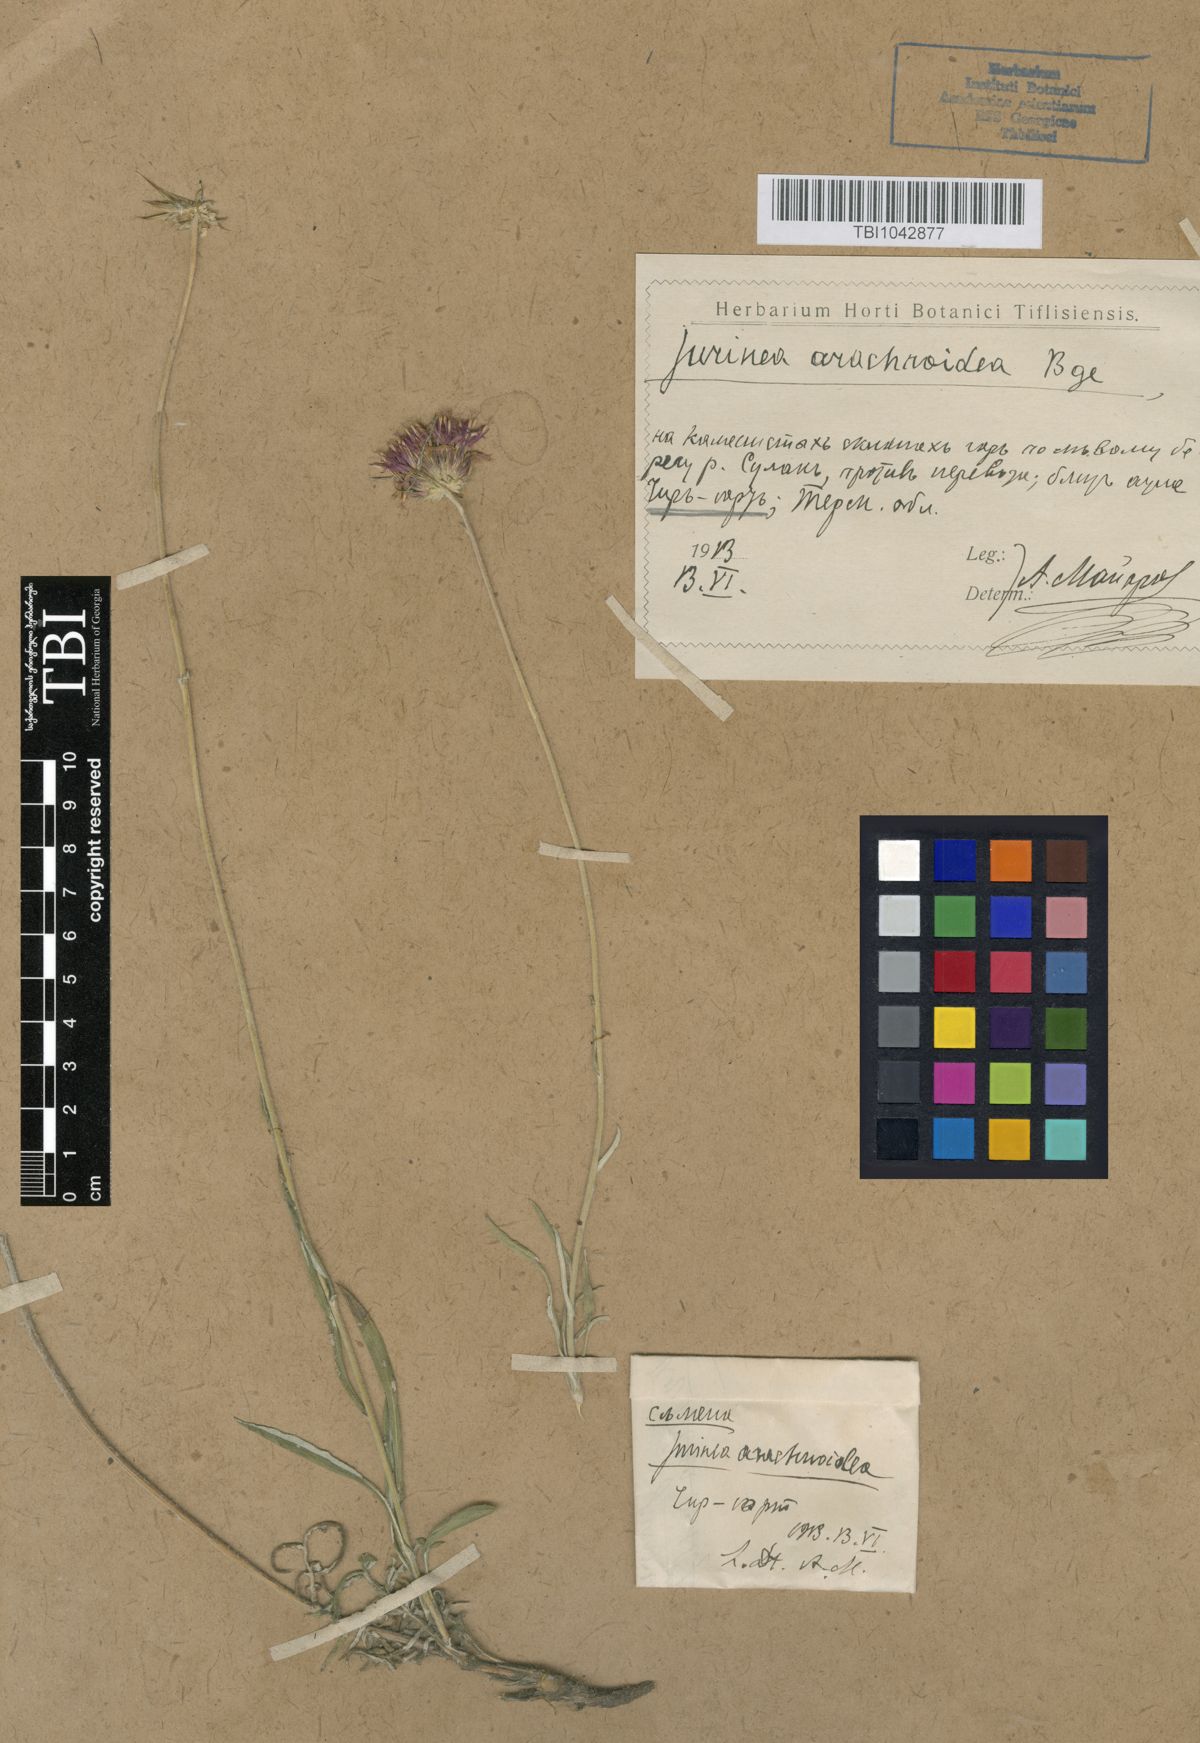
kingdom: Plantae
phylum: Tracheophyta
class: Magnoliopsida
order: Asterales
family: Asteraceae
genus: Jurinea
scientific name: Jurinea blanda
